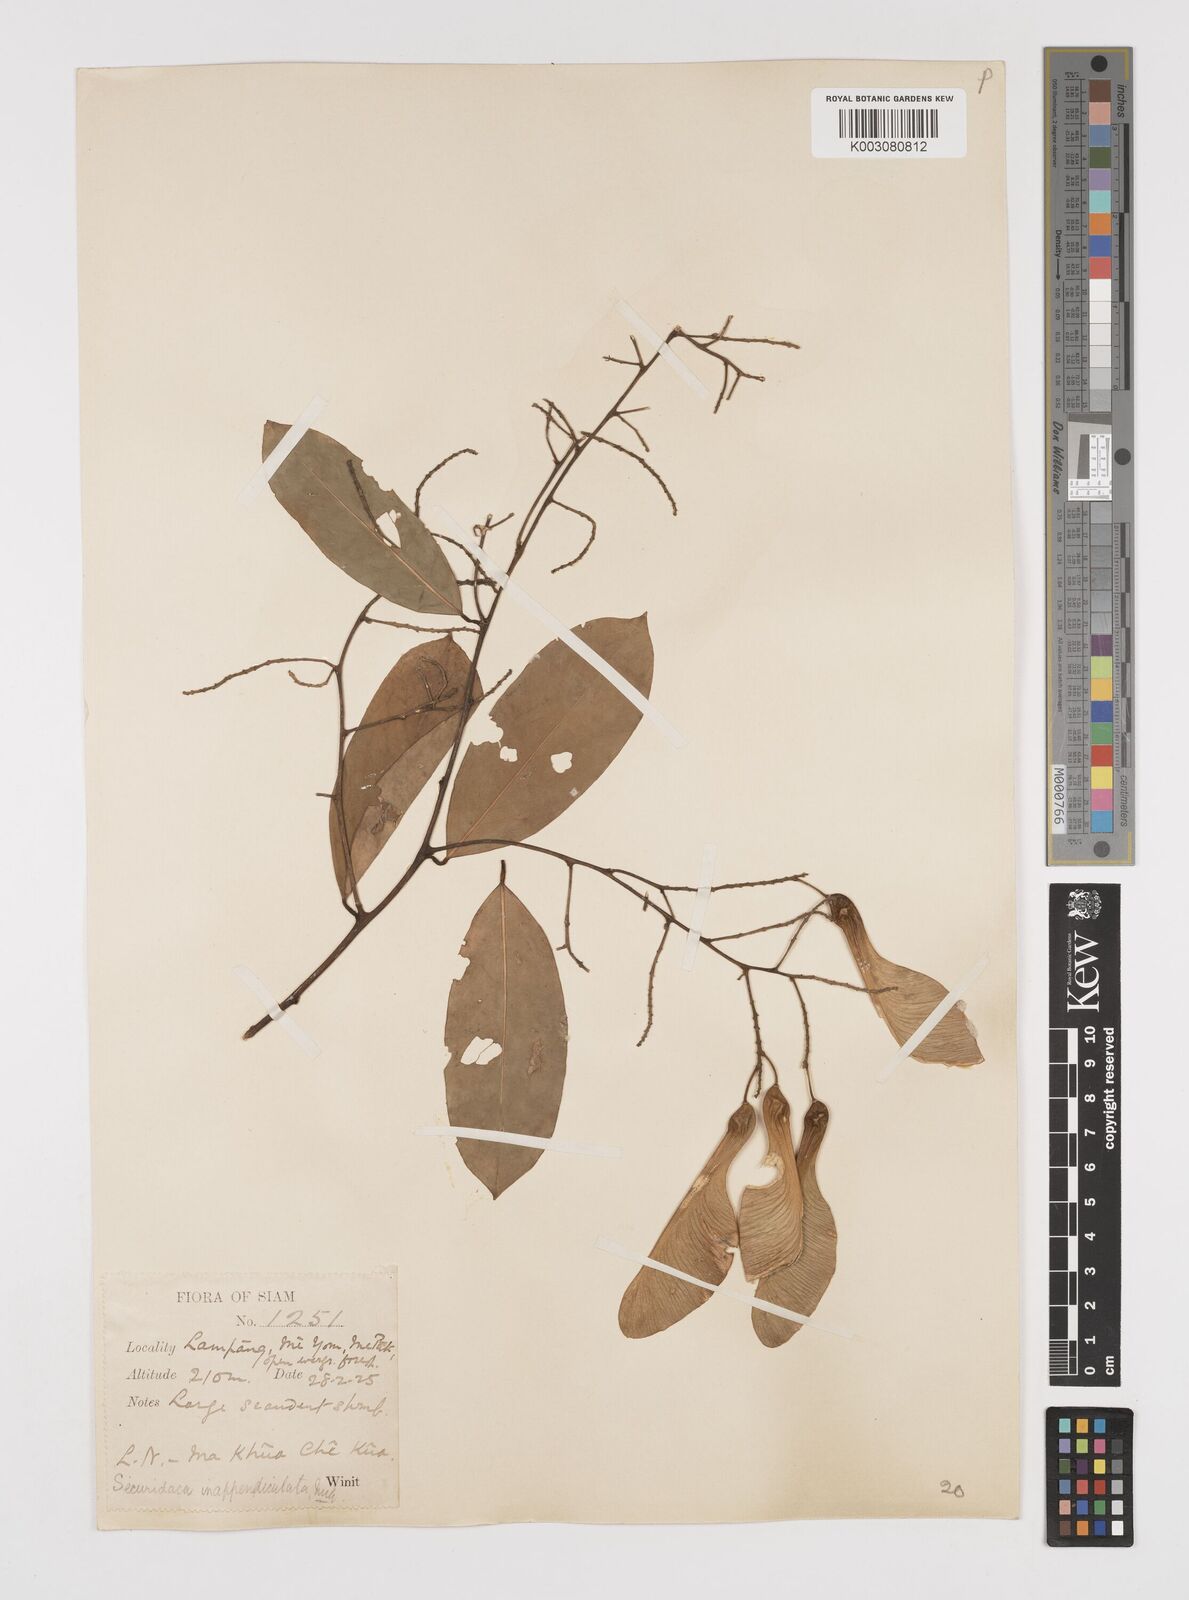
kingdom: Plantae
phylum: Tracheophyta
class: Magnoliopsida
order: Fabales
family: Polygalaceae
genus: Securidaca
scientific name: Securidaca inappendiculata
